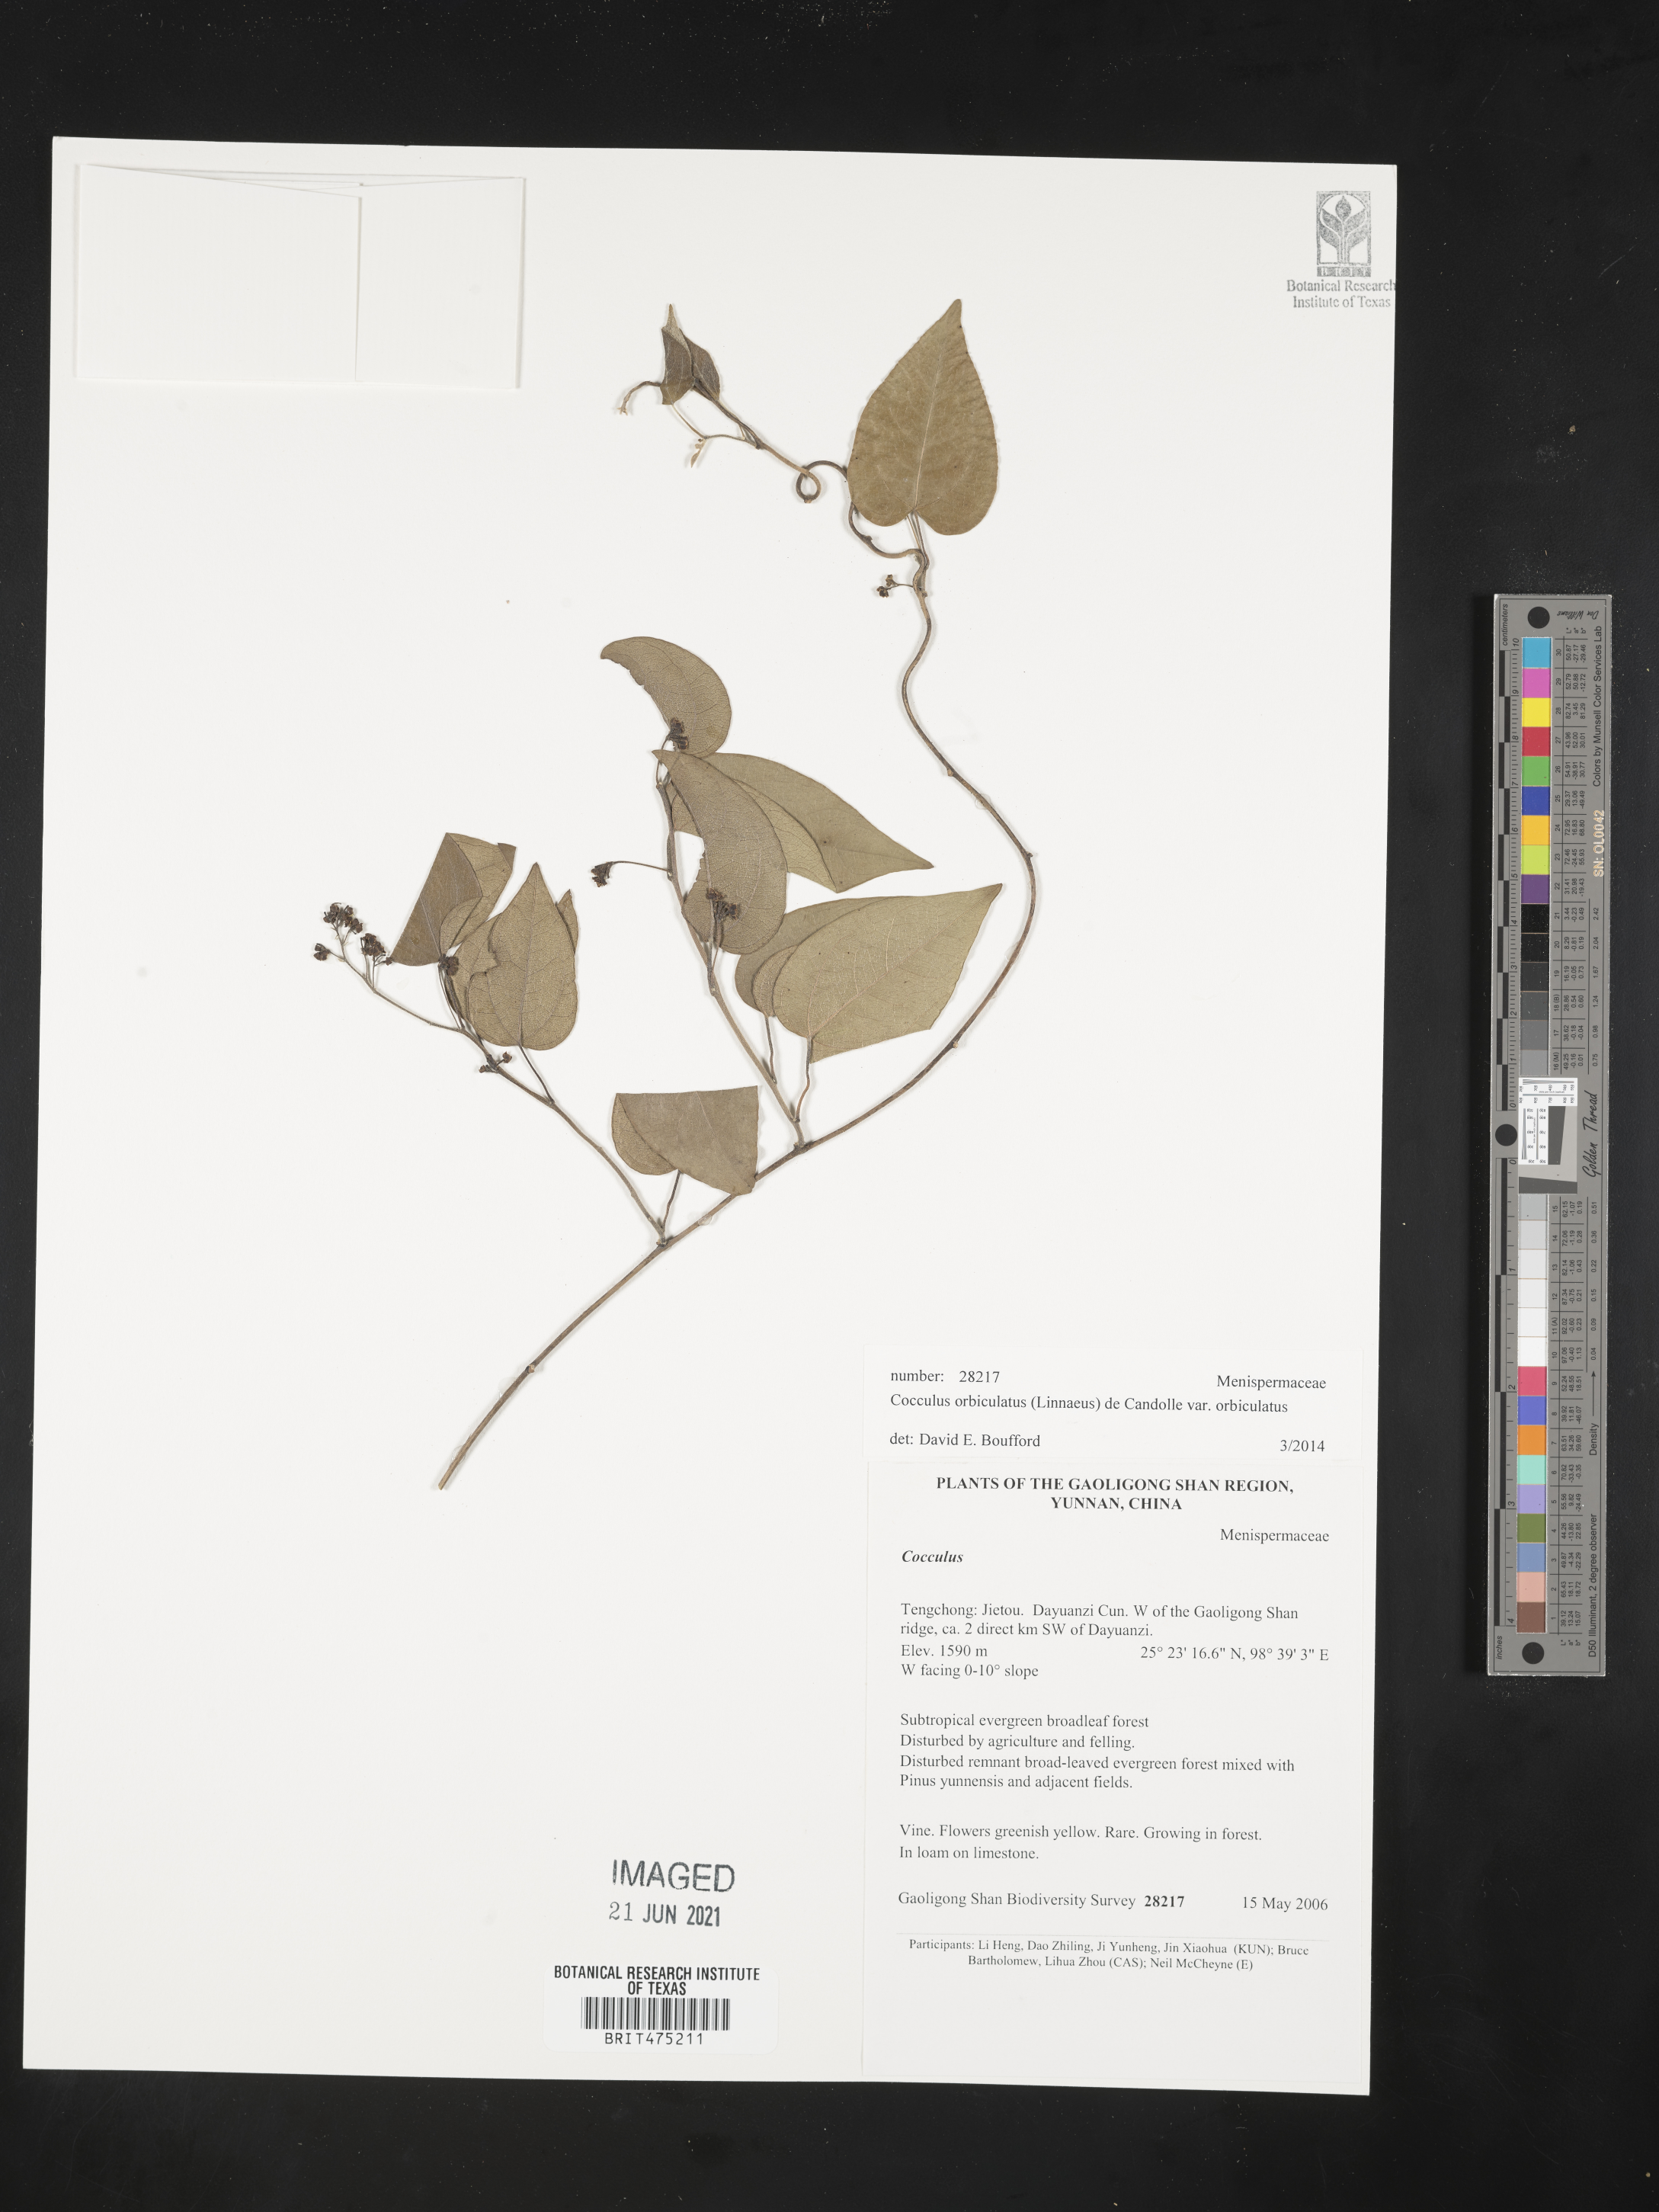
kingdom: Plantae
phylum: Tracheophyta
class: Magnoliopsida
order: Ranunculales
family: Menispermaceae
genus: Cocculus
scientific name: Cocculus orbiculatus
